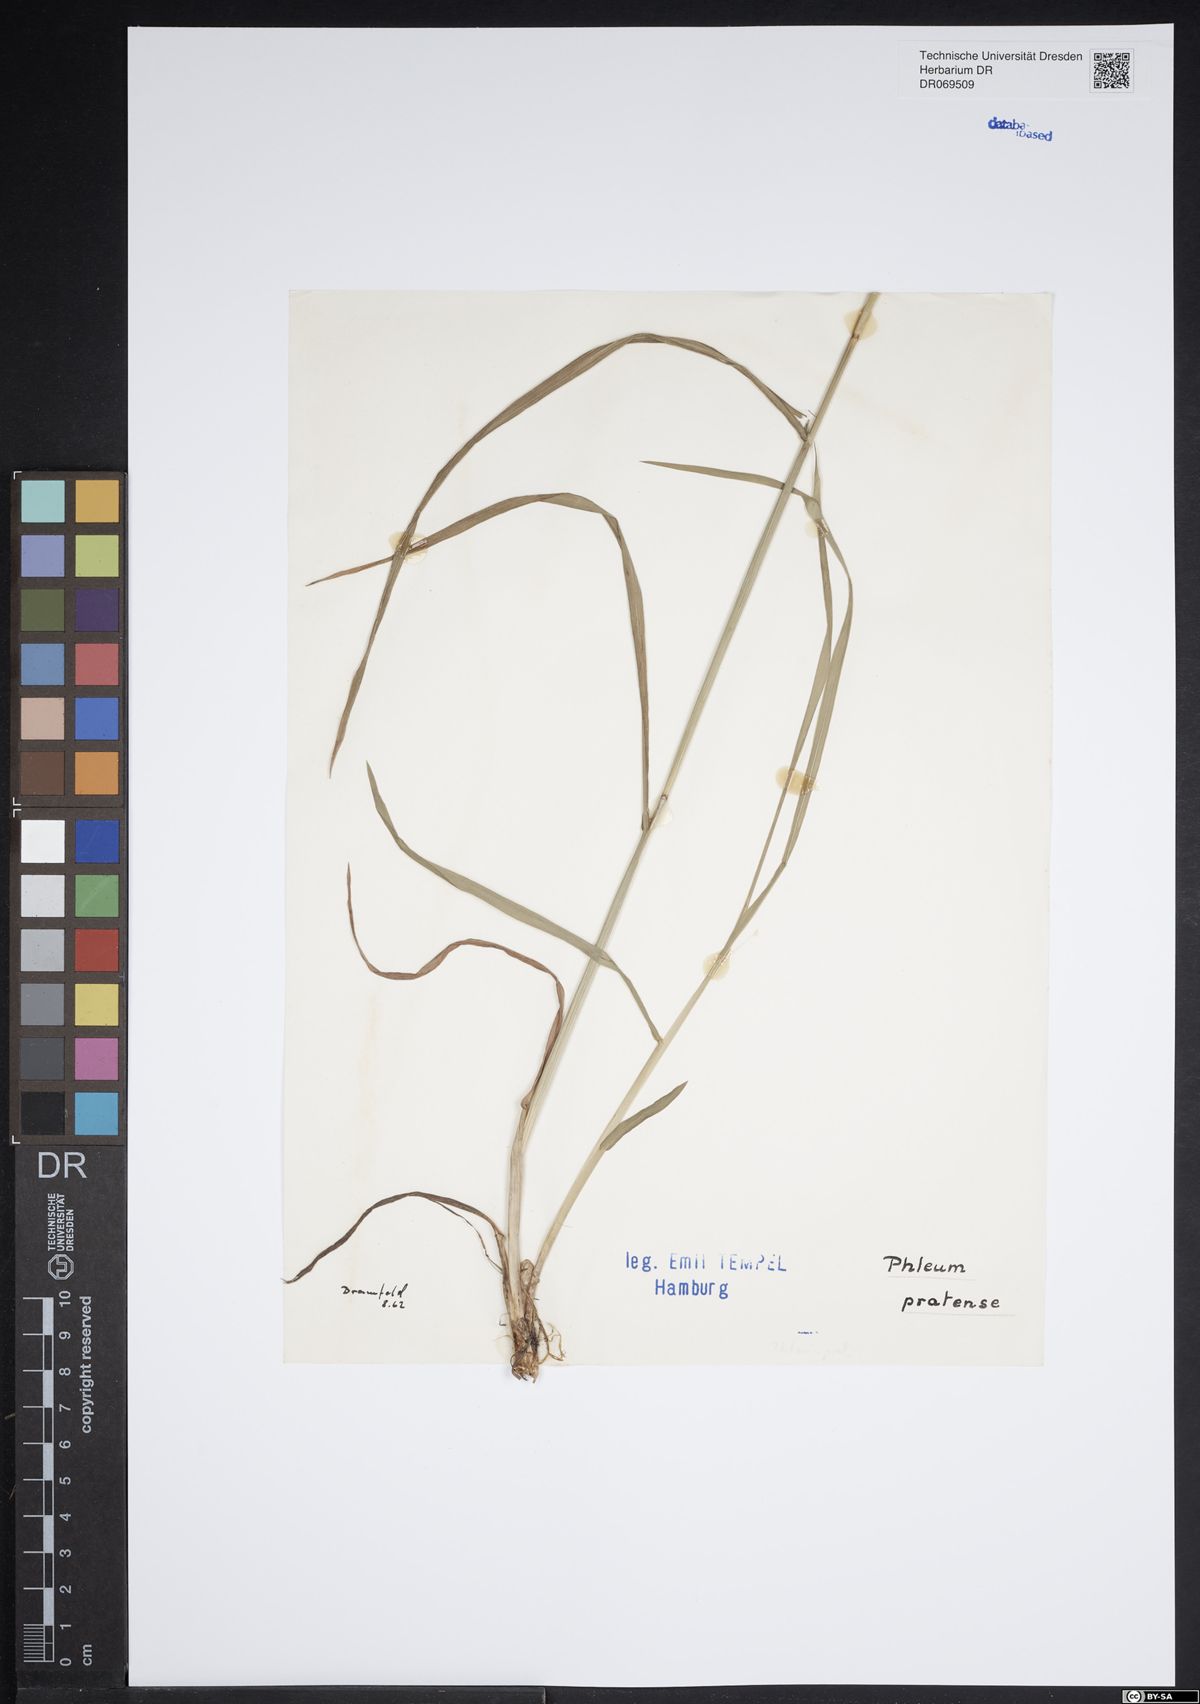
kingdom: Plantae
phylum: Tracheophyta
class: Liliopsida
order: Poales
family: Poaceae
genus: Phleum
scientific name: Phleum pratense
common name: Timothy grass
